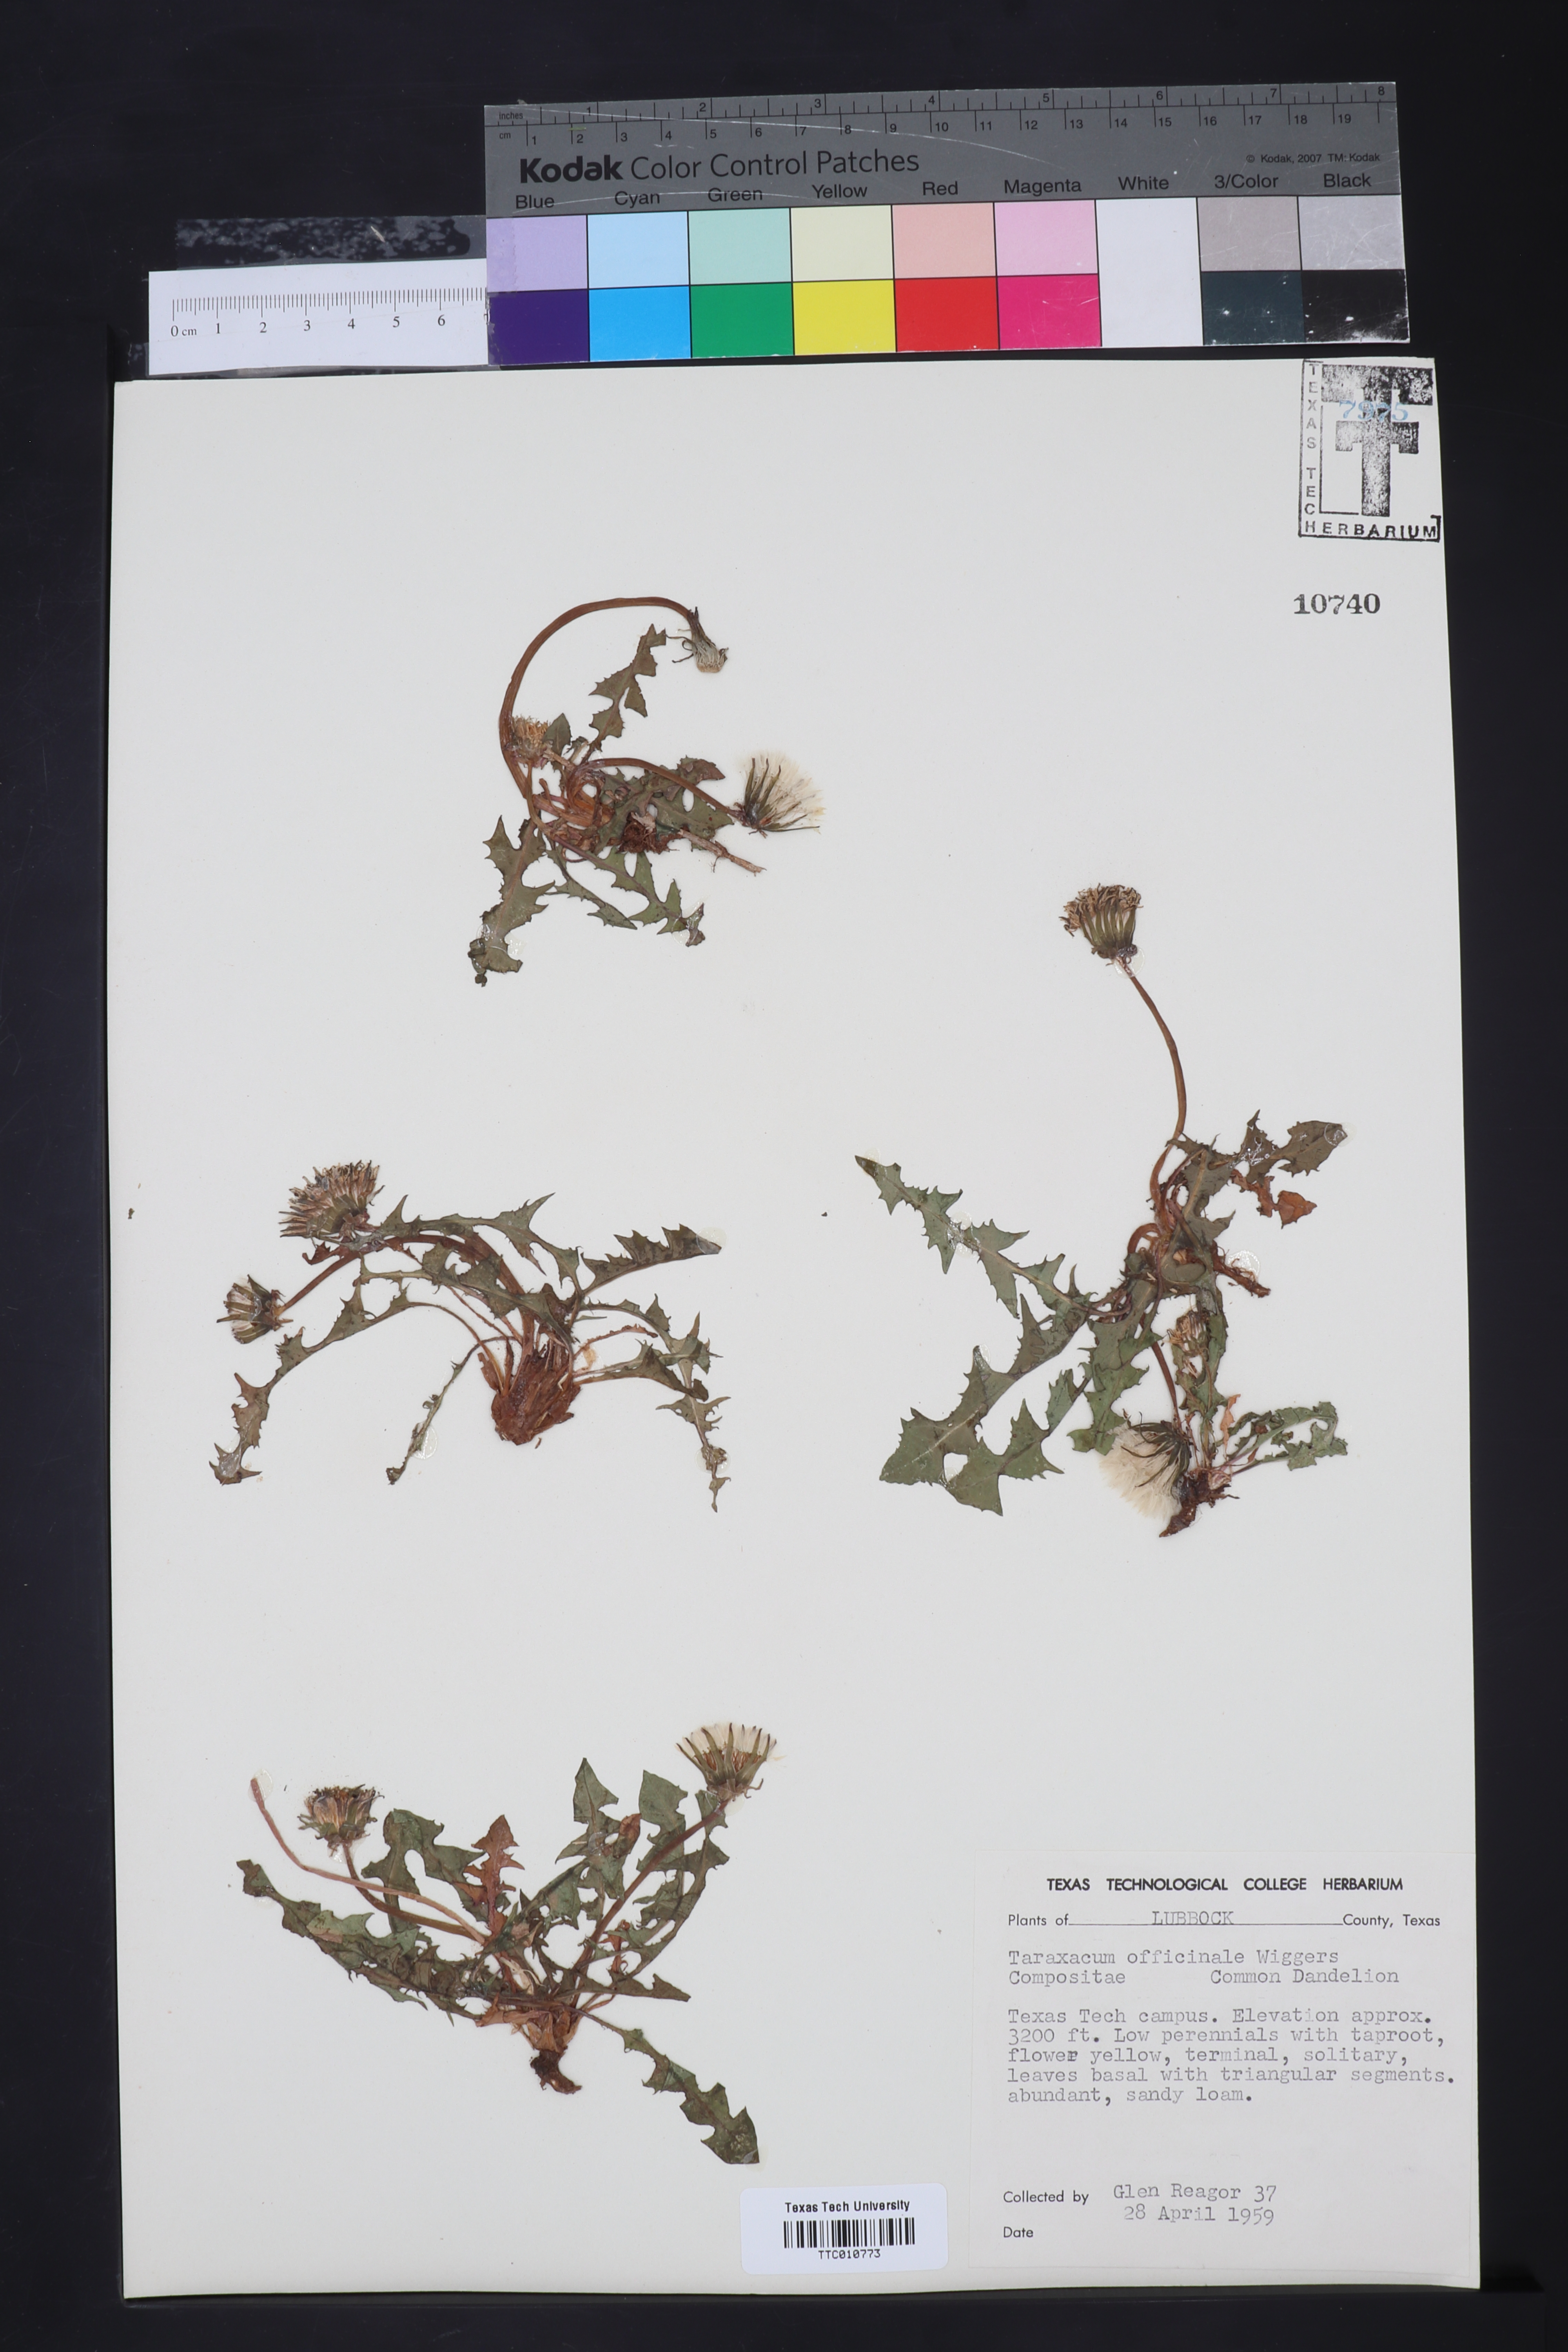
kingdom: Plantae
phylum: Tracheophyta
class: Magnoliopsida
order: Asterales
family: Asteraceae
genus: Taraxacum
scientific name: Taraxacum officinale
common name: Common dandelion
